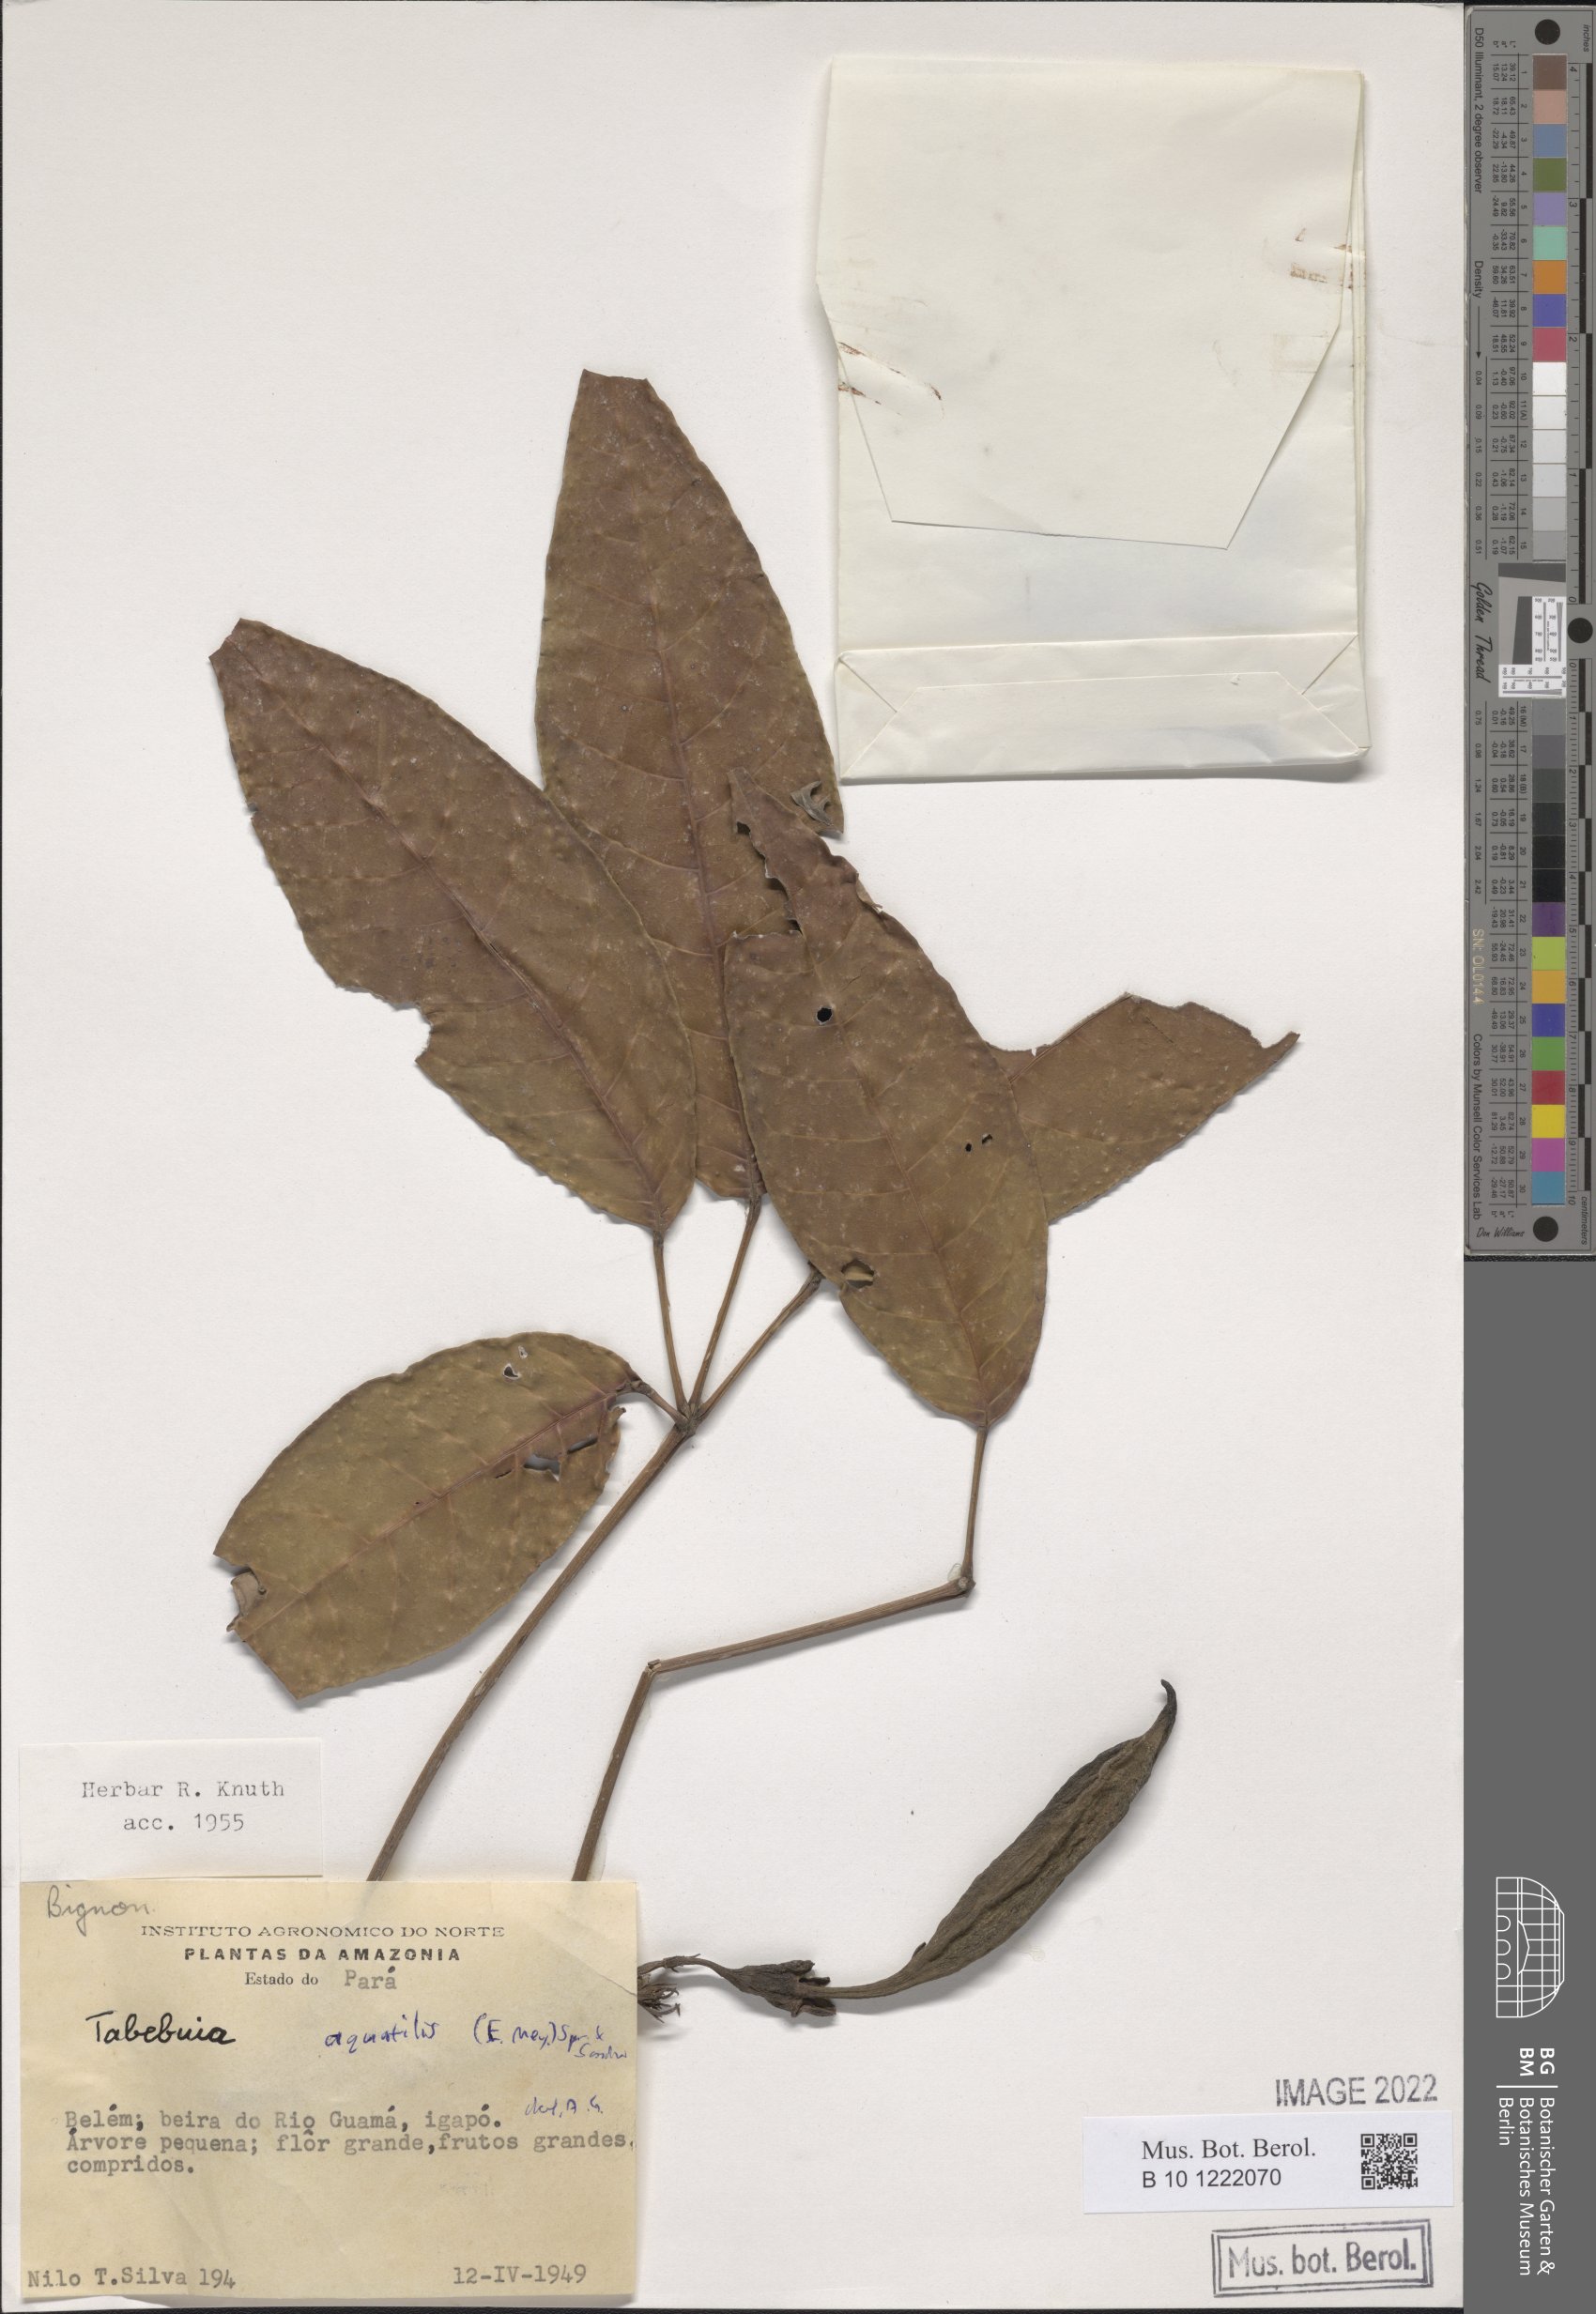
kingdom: Plantae
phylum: Tracheophyta
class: Magnoliopsida
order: Lamiales
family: Bignoniaceae
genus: Tabebuia
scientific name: Tabebuia fluviatilis
